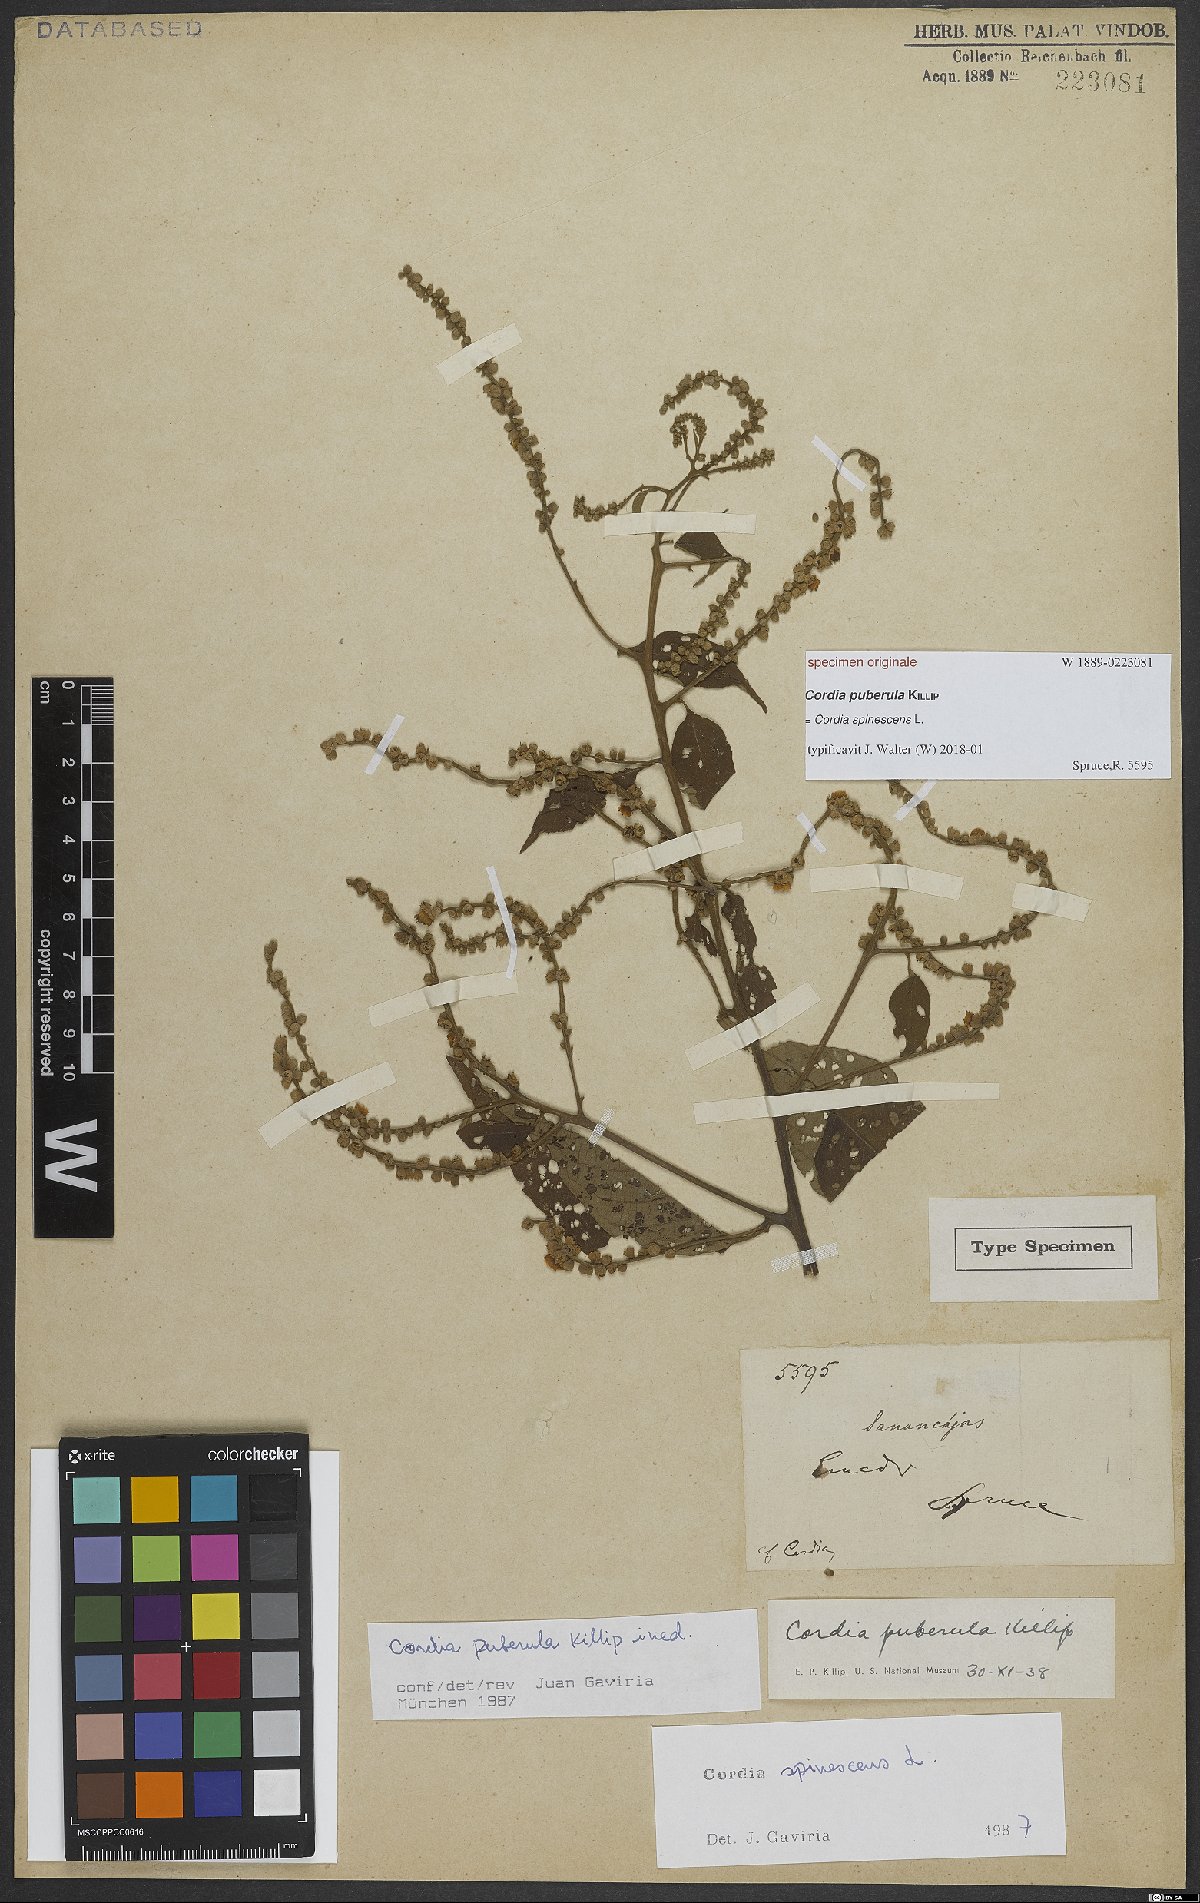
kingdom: Plantae
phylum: Tracheophyta
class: Magnoliopsida
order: Boraginales
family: Cordiaceae
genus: Varronia
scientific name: Varronia spinescens
